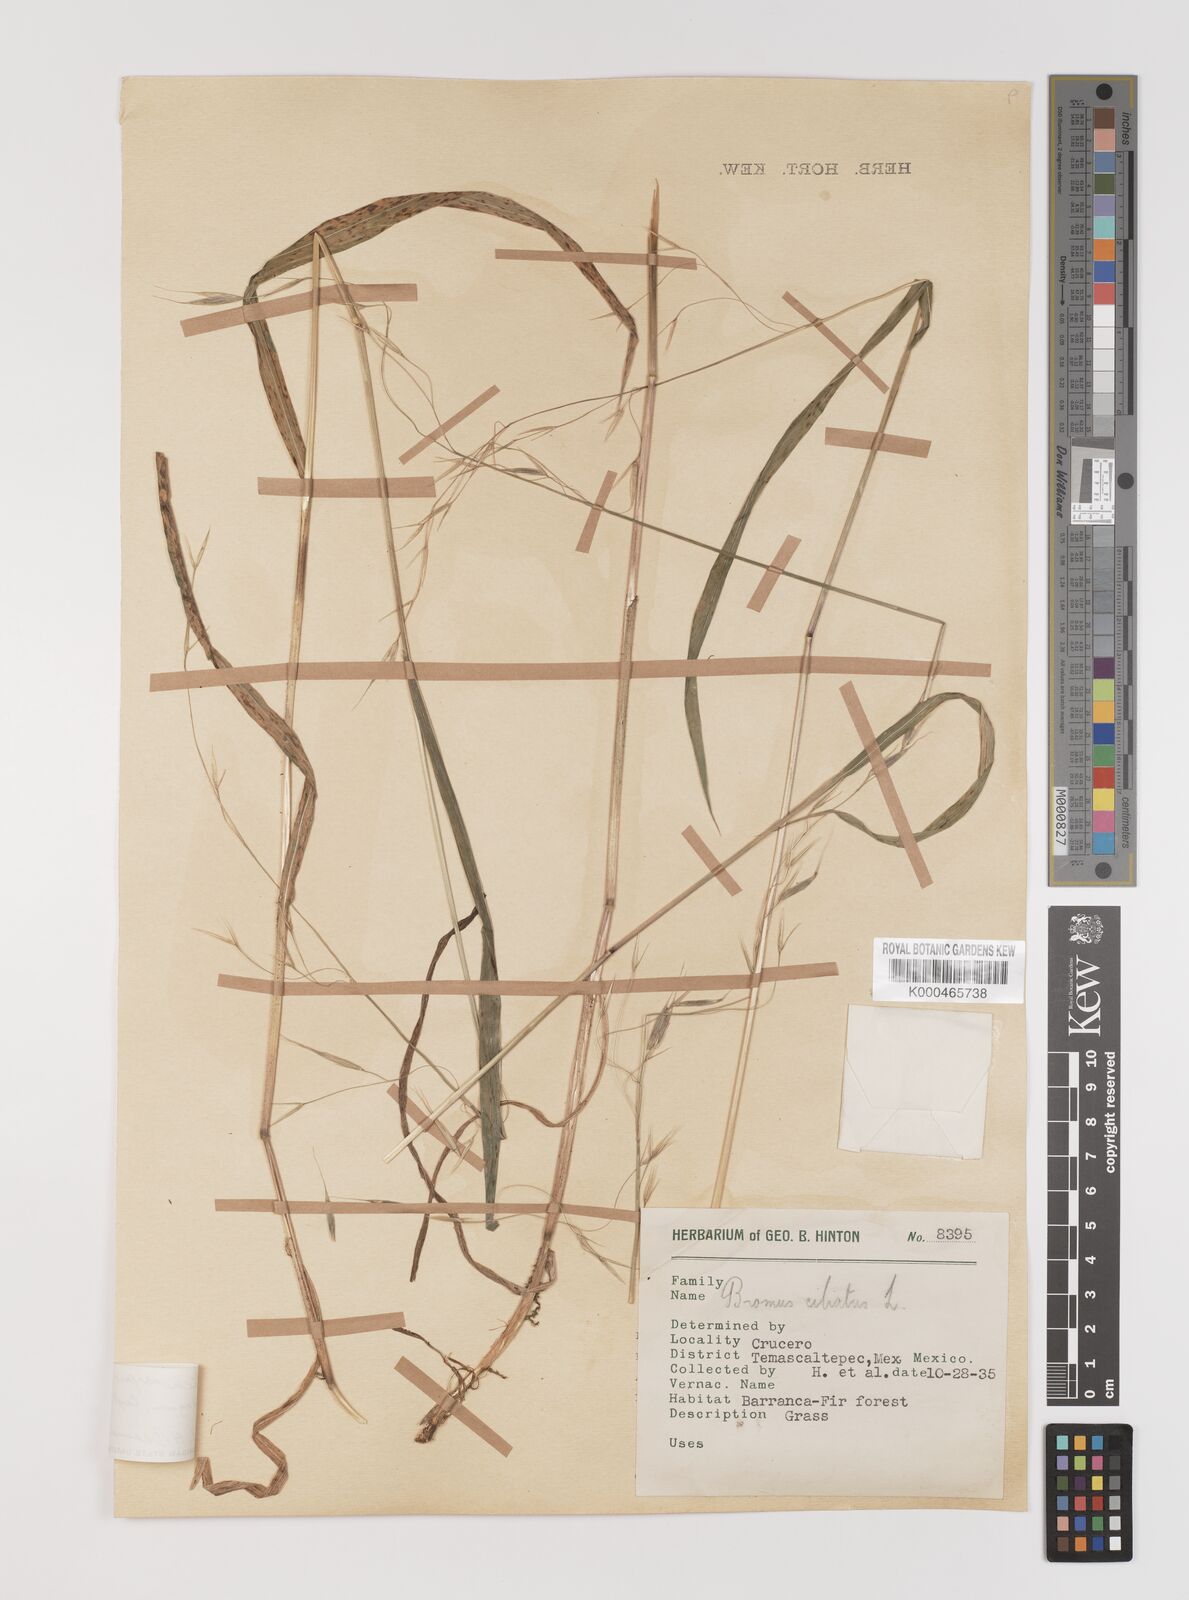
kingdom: Plantae
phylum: Tracheophyta
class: Liliopsida
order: Poales
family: Poaceae
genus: Bromus
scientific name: Bromus ciliatus
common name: Fringe brome
